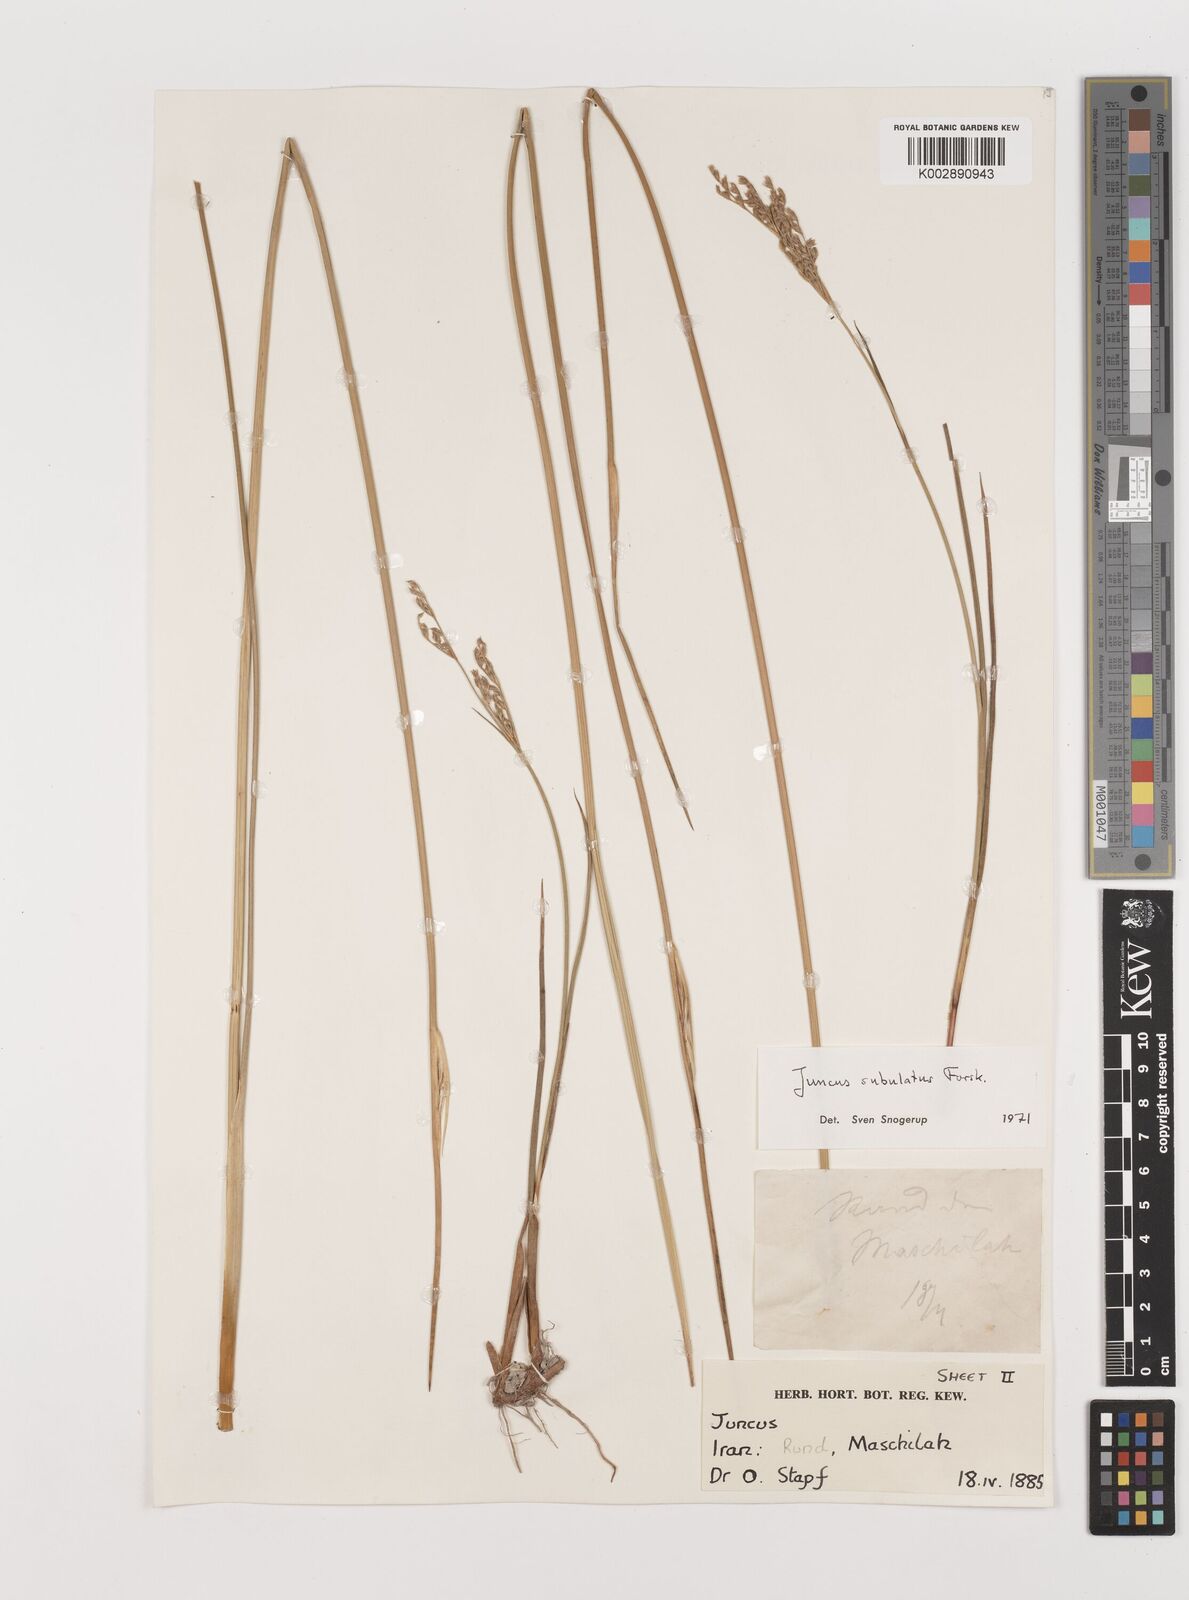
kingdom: Plantae
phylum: Tracheophyta
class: Liliopsida
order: Poales
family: Juncaceae
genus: Juncus
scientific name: Juncus subulatus
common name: Somerset rush
